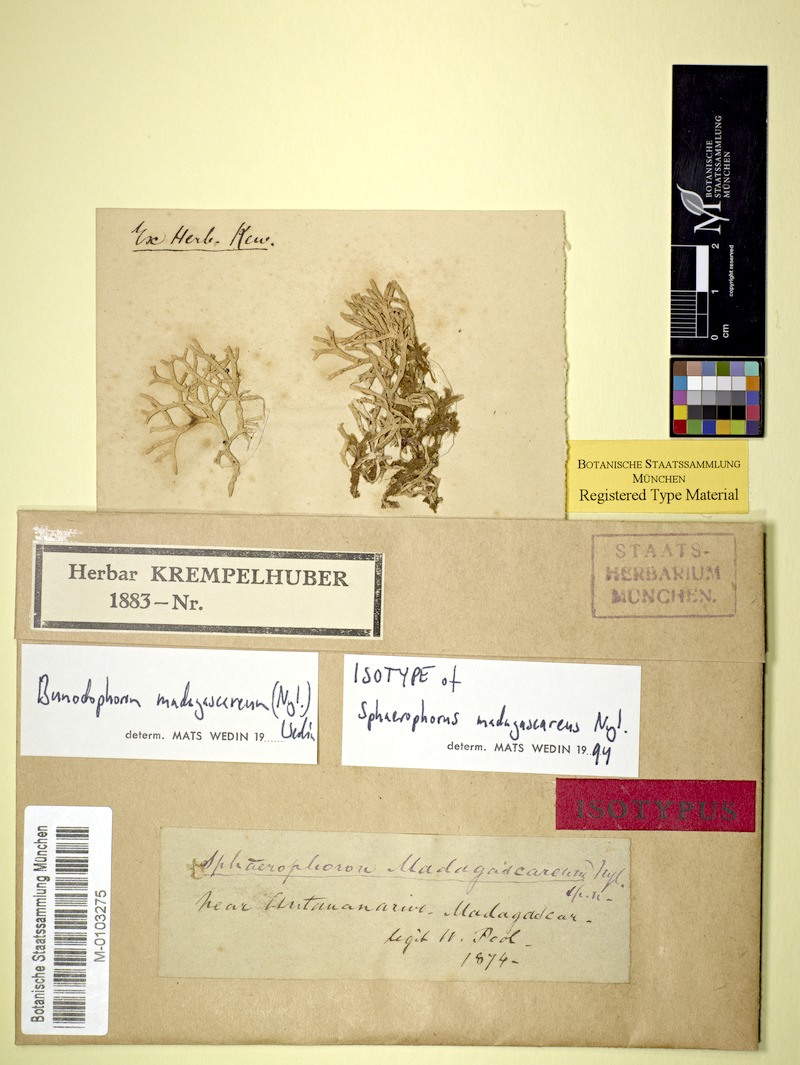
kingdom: Fungi
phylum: Ascomycota
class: Lecanoromycetes
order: Lecanorales
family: Sphaerophoraceae
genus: Bunodophoron
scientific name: Bunodophoron madagascareum
